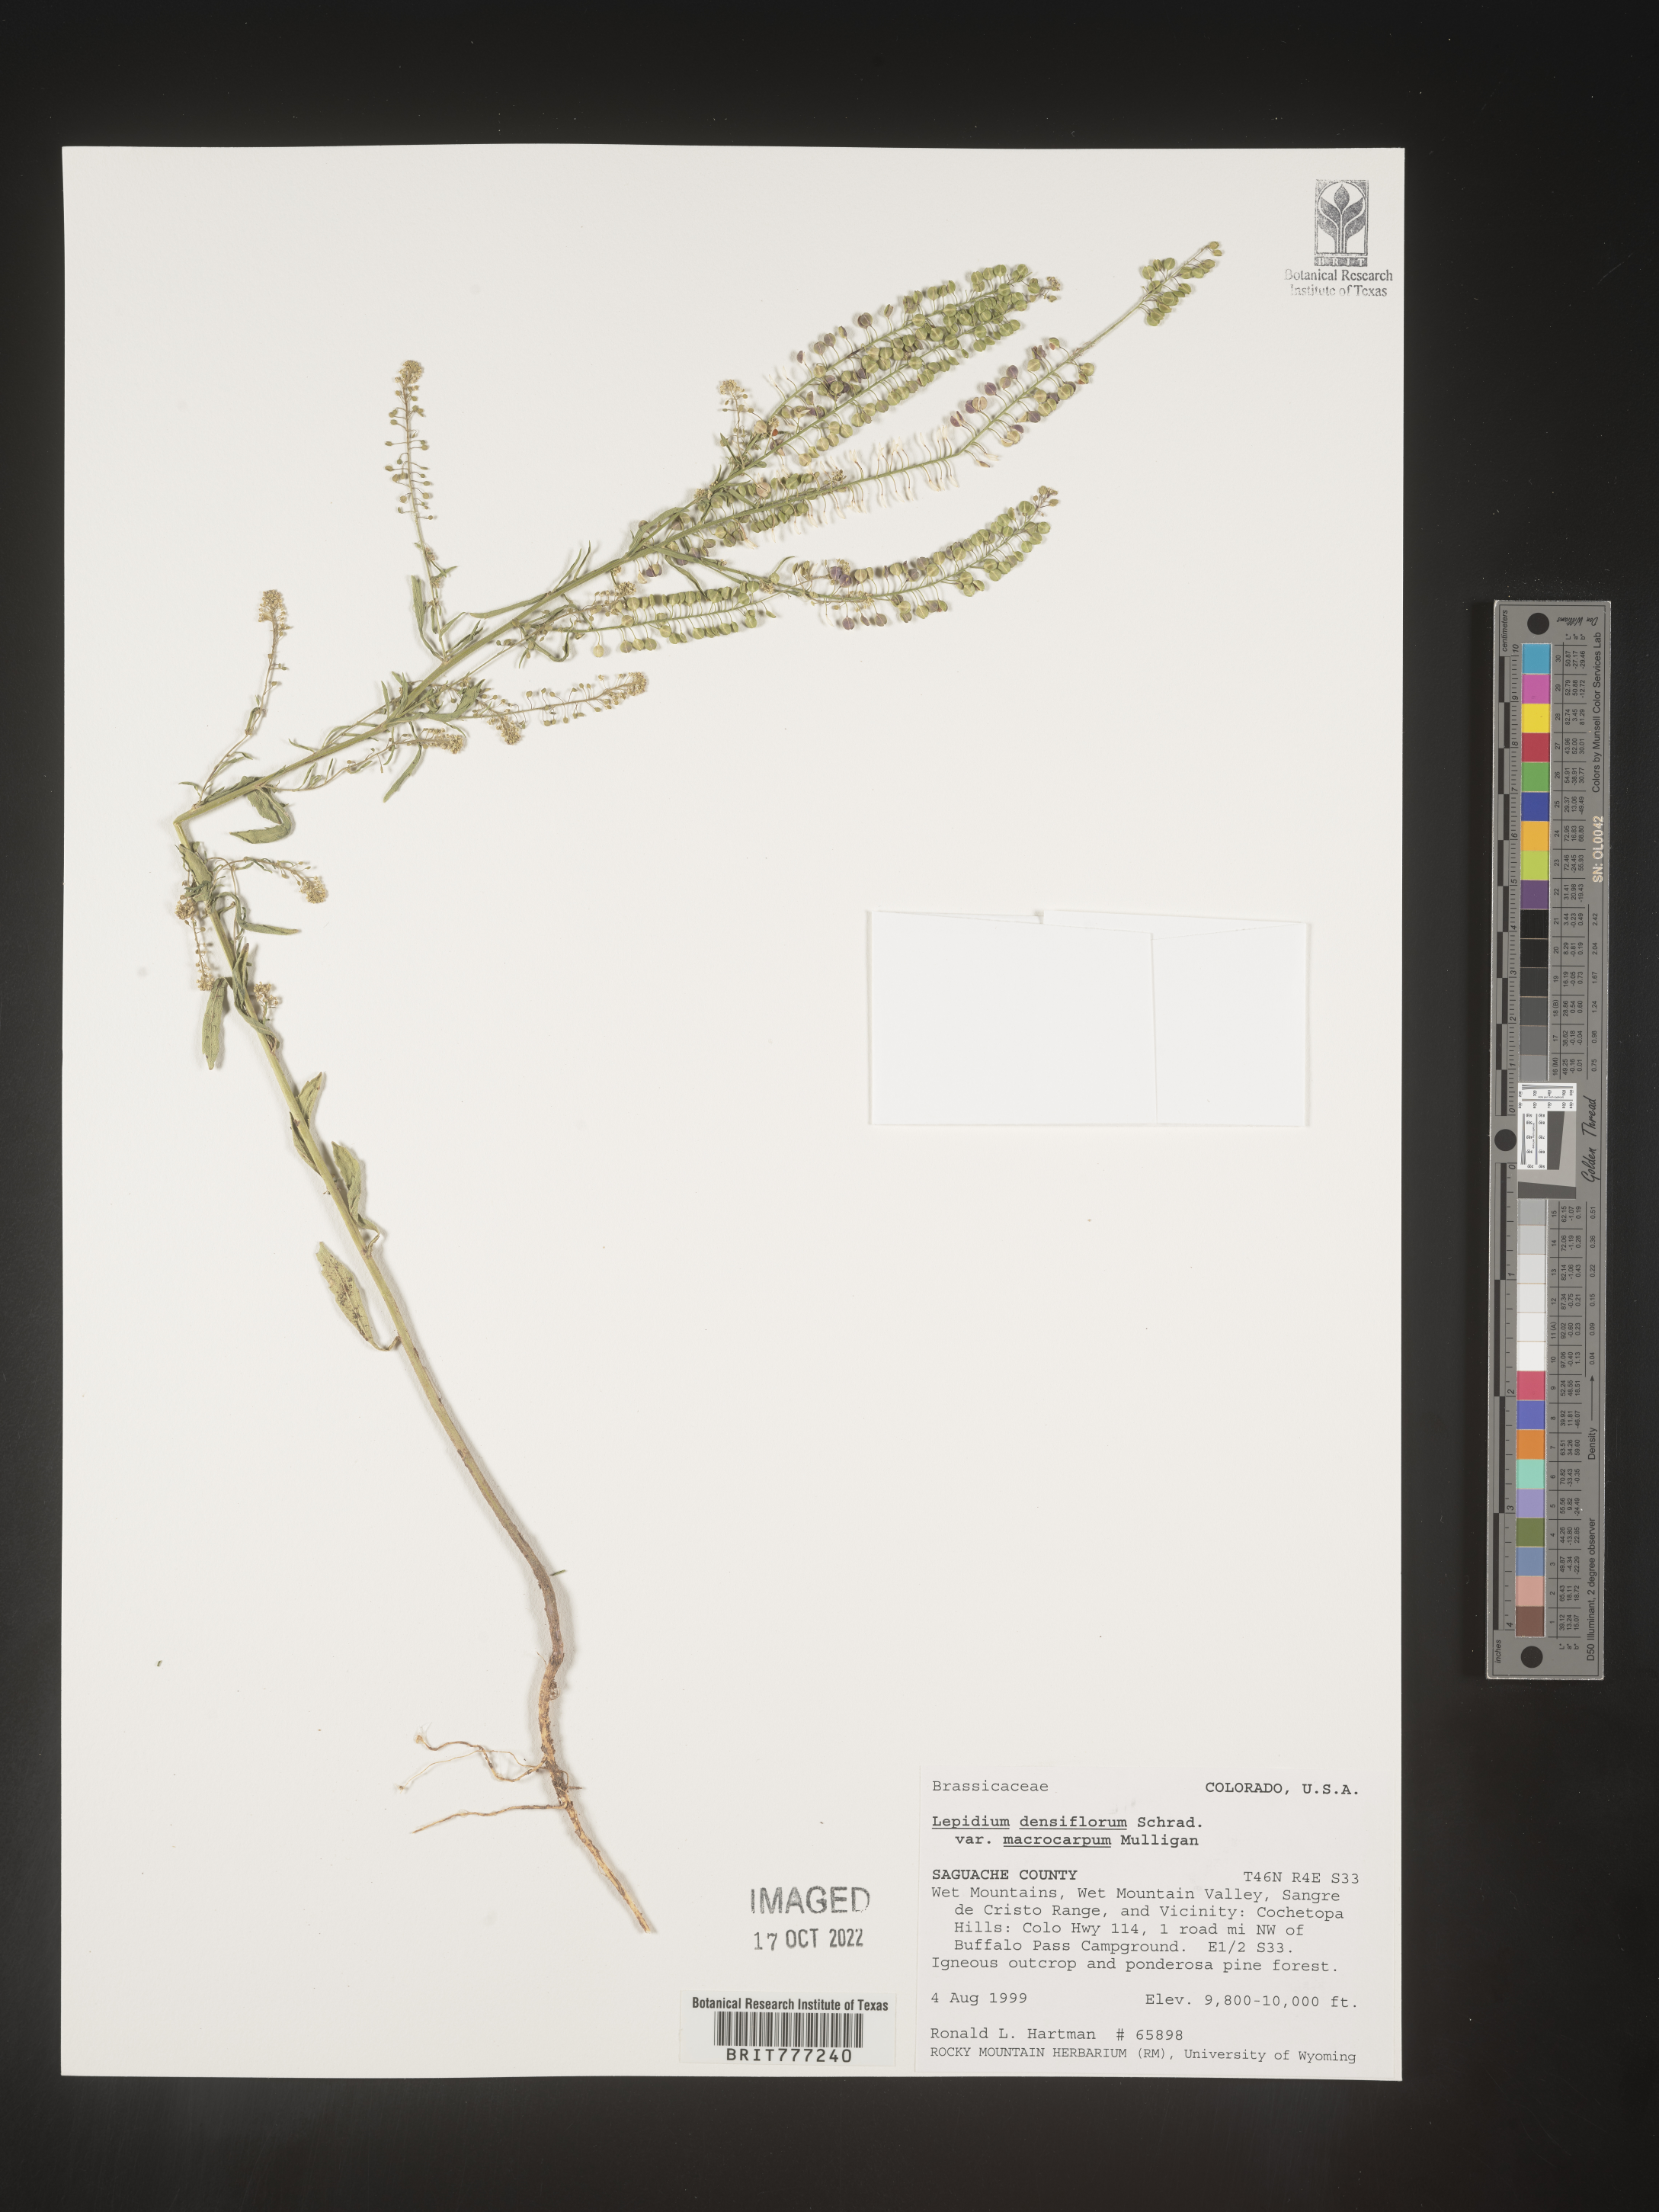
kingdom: Plantae
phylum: Tracheophyta
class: Magnoliopsida
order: Brassicales
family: Brassicaceae
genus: Lepidium
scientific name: Lepidium densiflorum
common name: Miner's pepperwort
